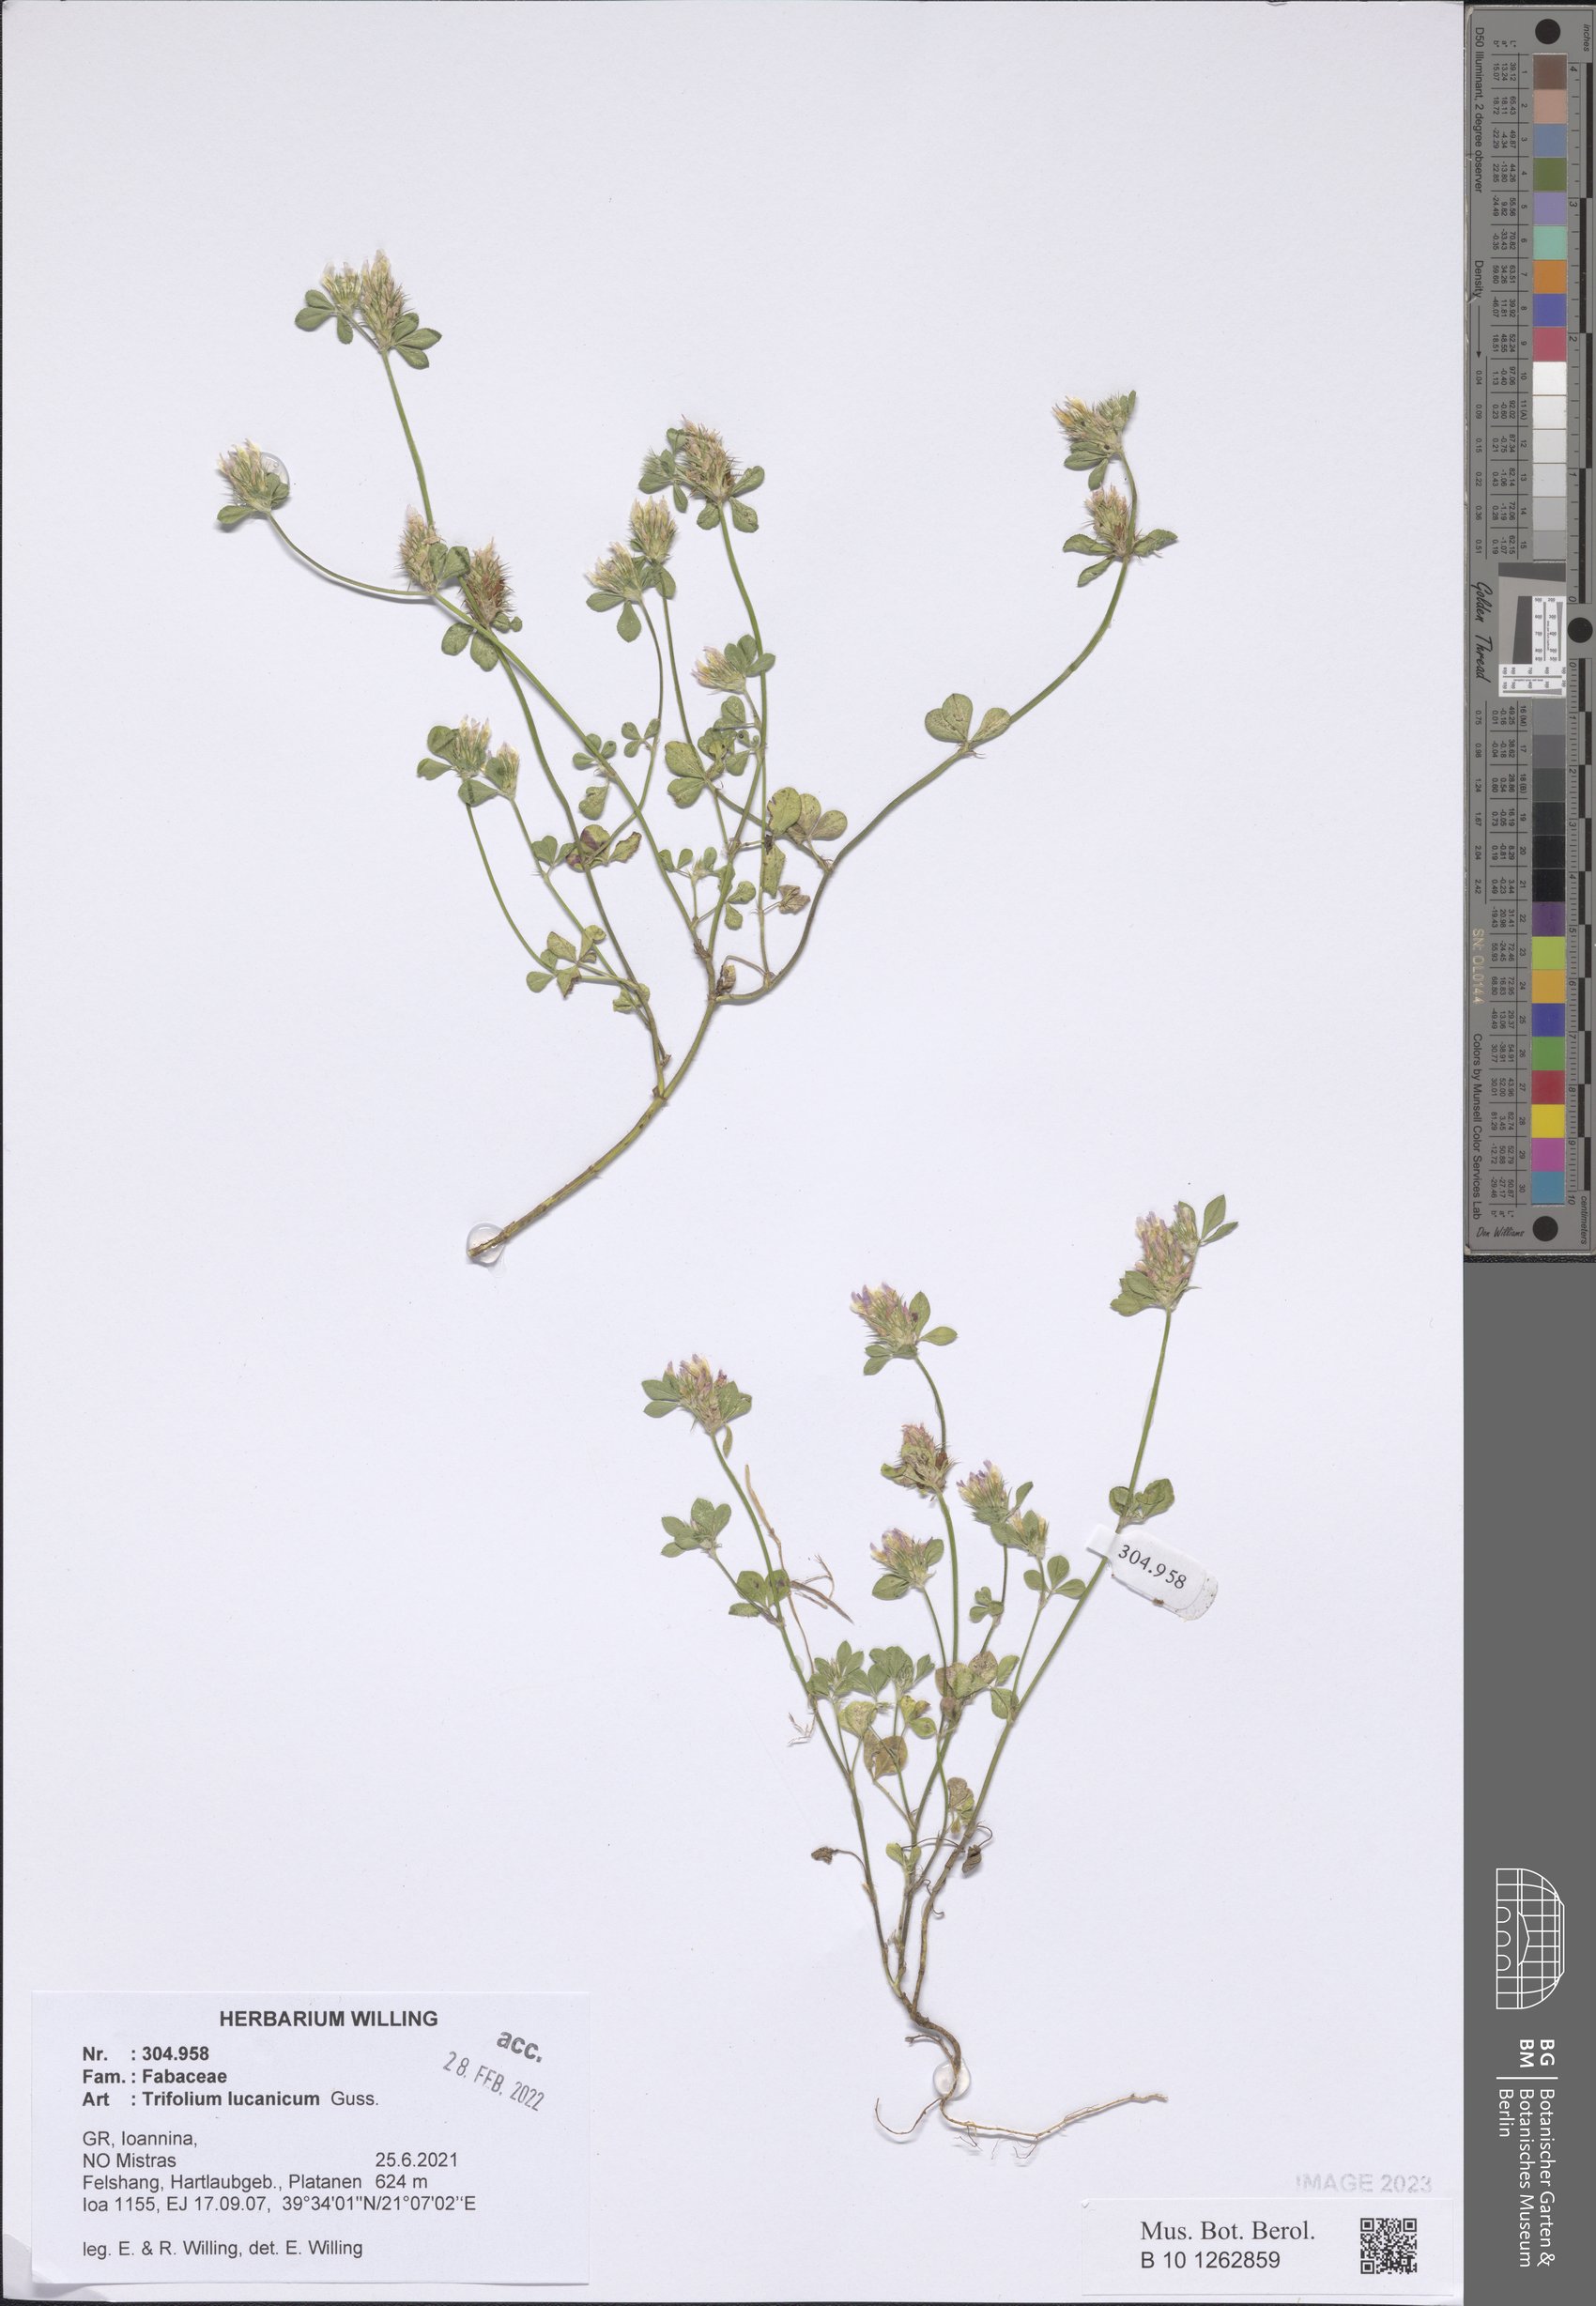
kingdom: Plantae
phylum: Tracheophyta
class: Magnoliopsida
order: Fabales
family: Fabaceae
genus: Trifolium
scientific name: Trifolium lucanicum
